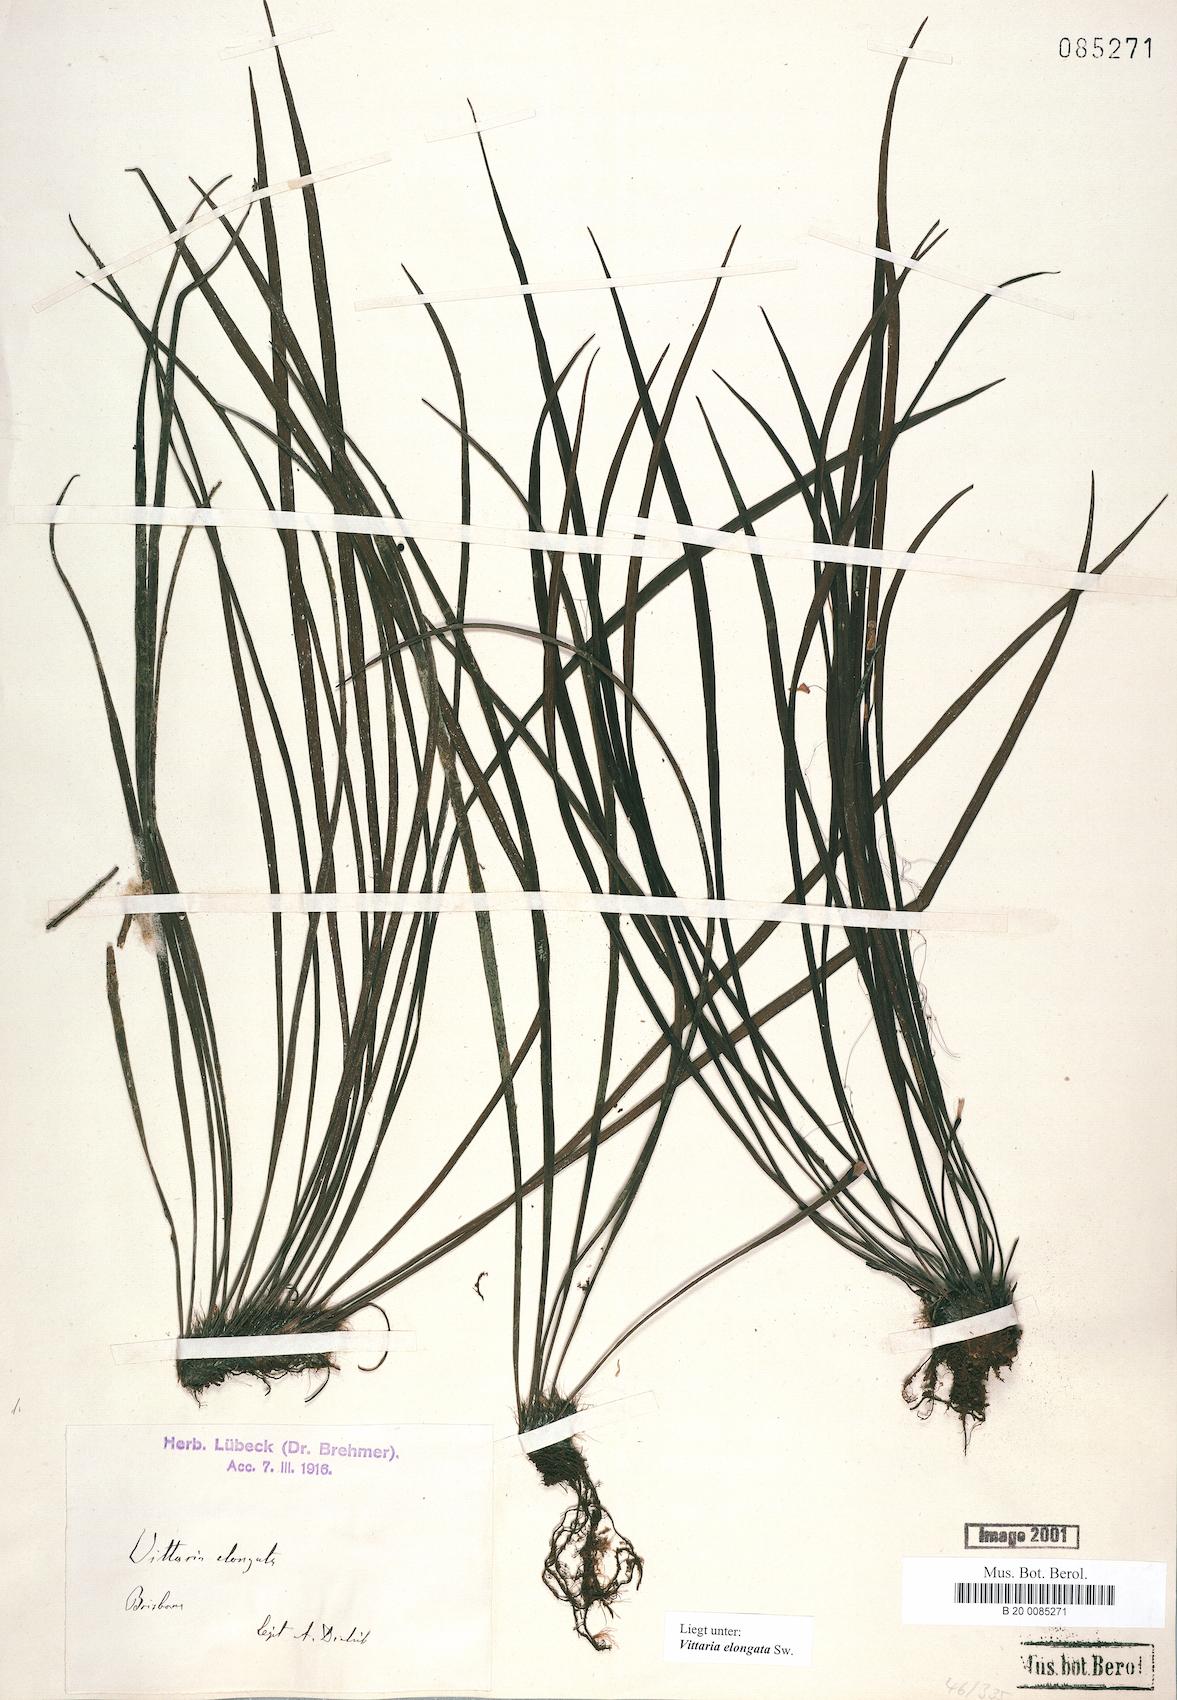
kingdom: Plantae
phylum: Tracheophyta
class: Polypodiopsida
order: Polypodiales
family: Pteridaceae
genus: Haplopteris
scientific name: Haplopteris elongata
